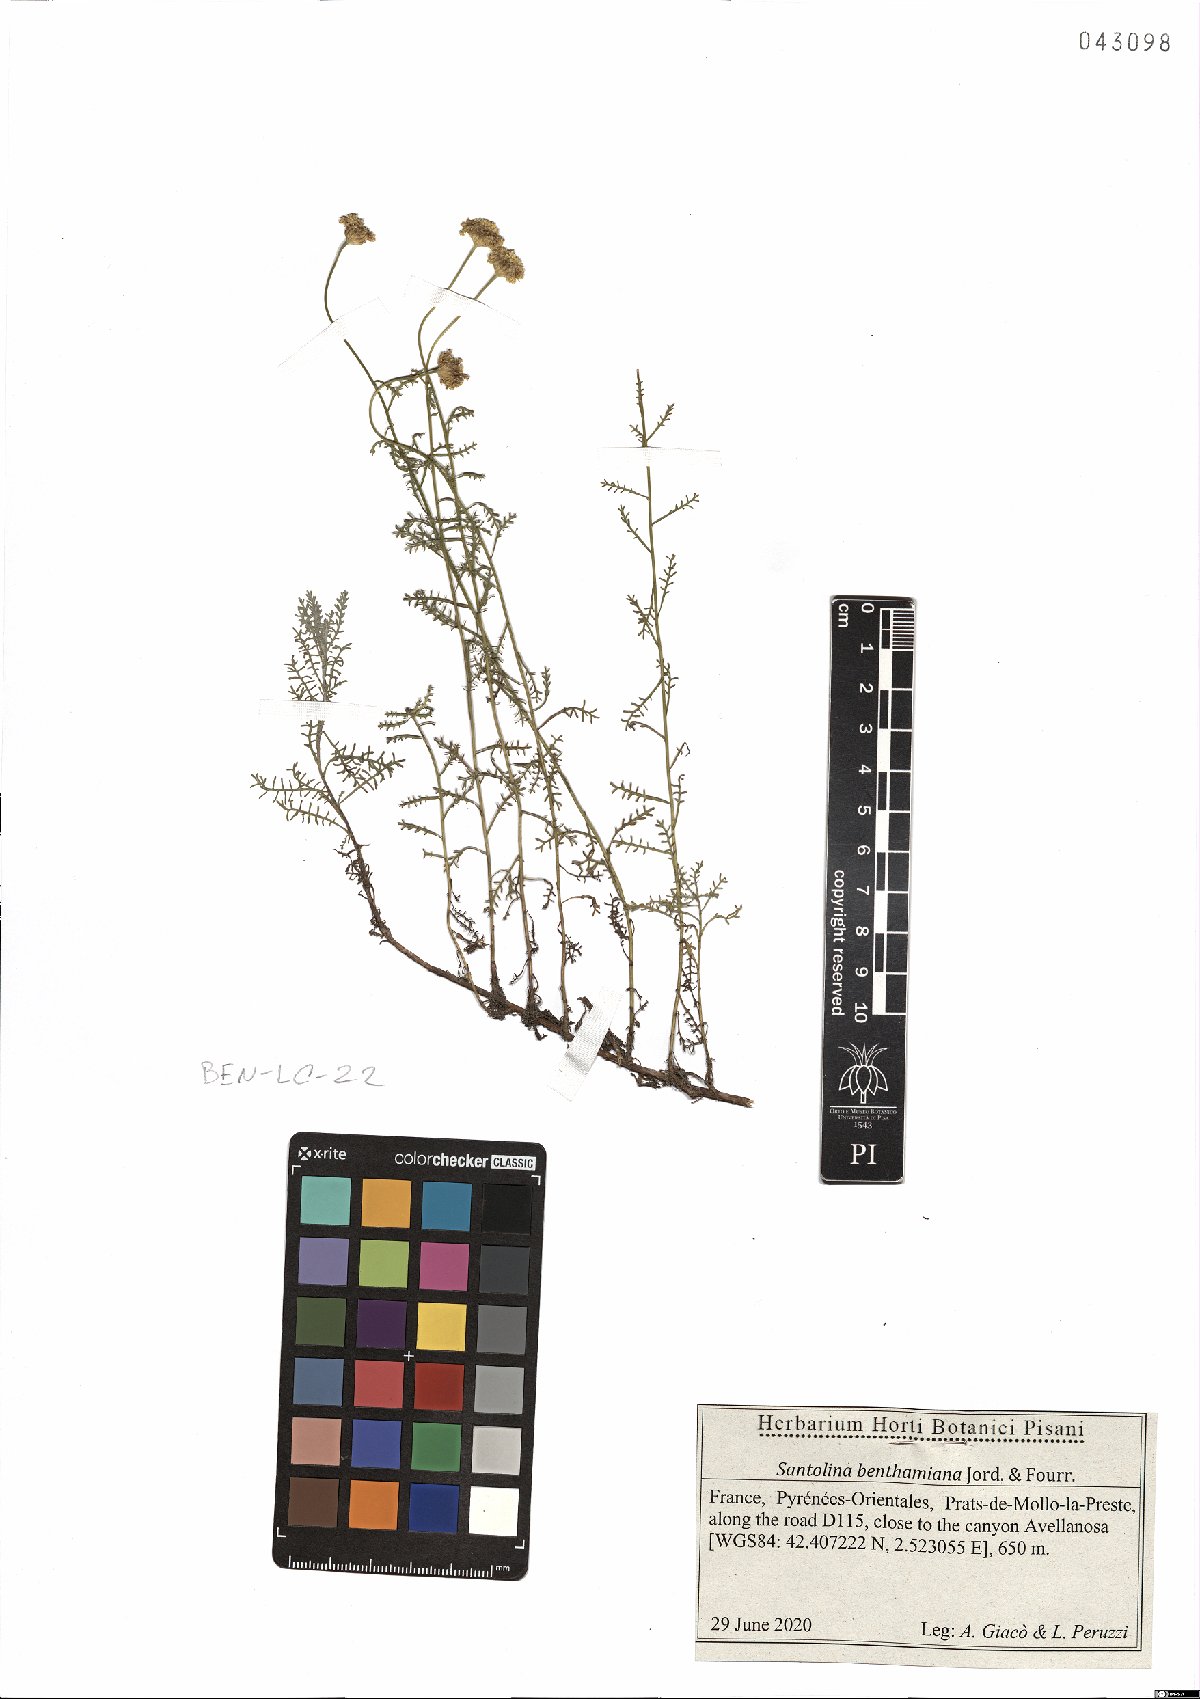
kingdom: Plantae
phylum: Tracheophyta
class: Magnoliopsida
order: Asterales
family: Asteraceae
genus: Santolina
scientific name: Santolina benthamiana
